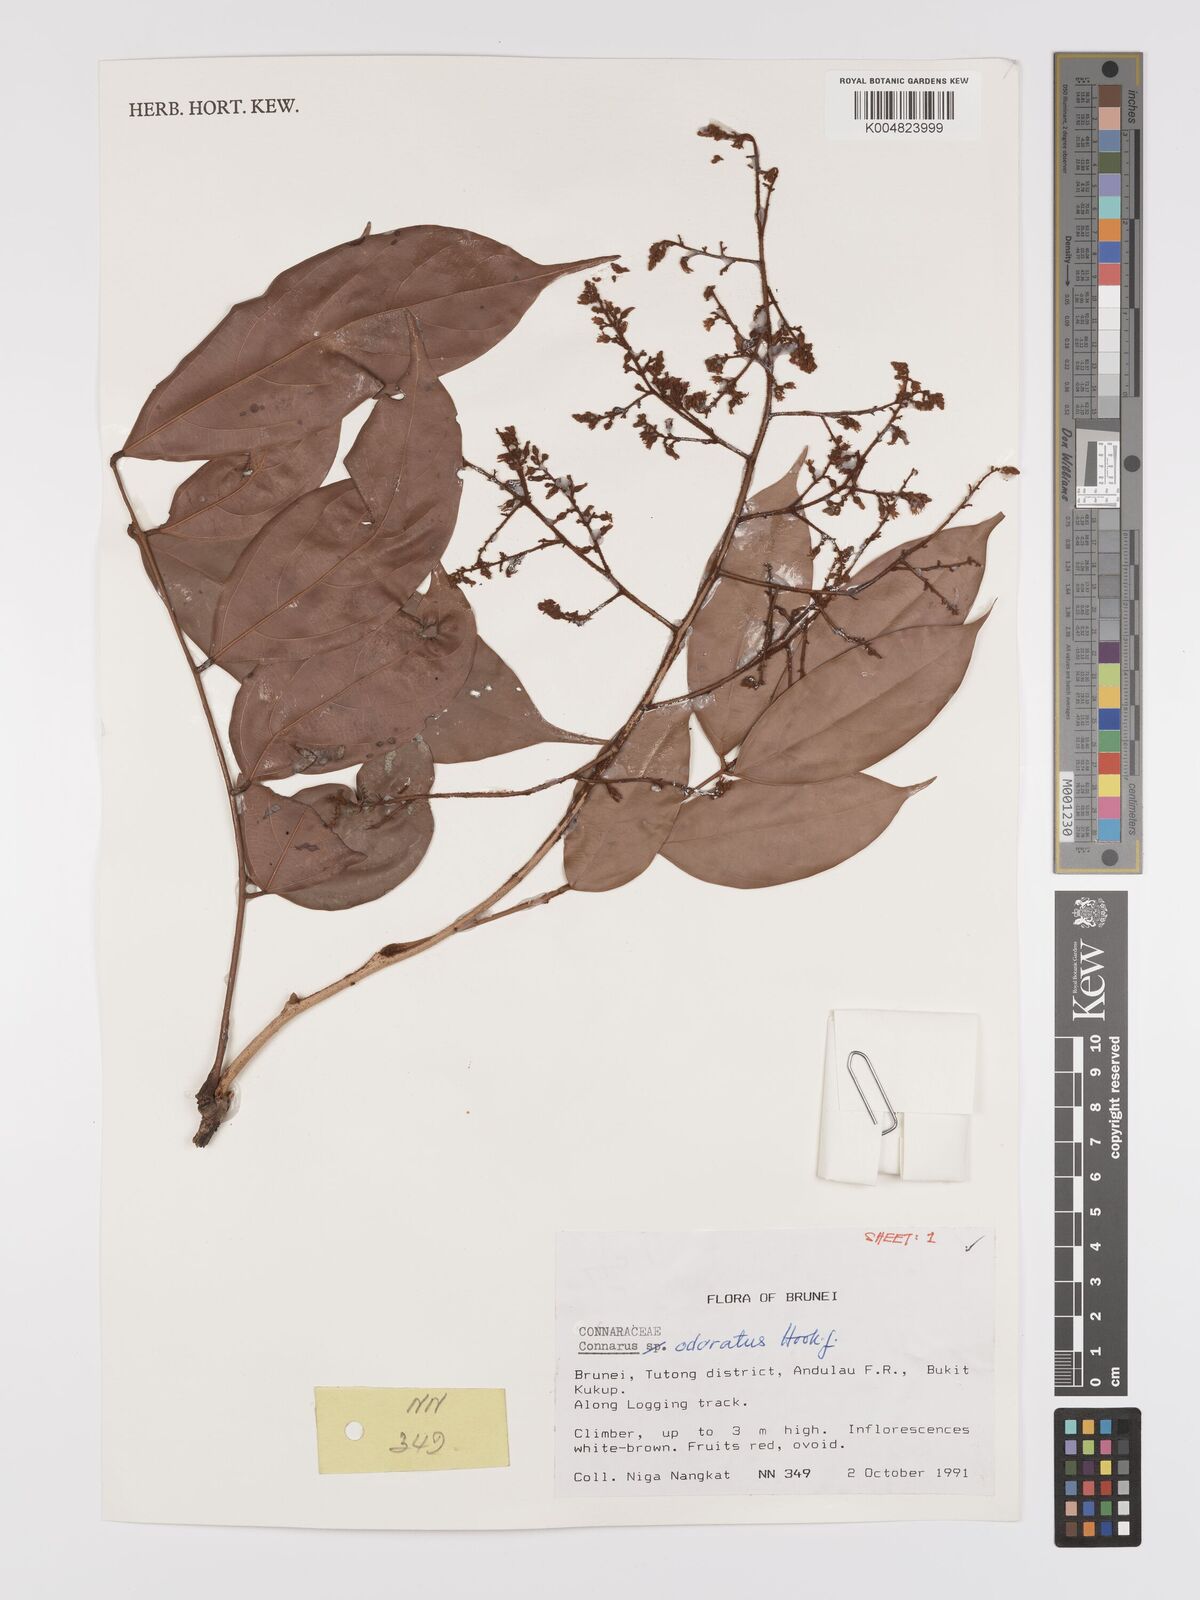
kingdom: Plantae
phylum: Tracheophyta
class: Magnoliopsida
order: Oxalidales
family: Connaraceae
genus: Connarus
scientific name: Connarus odoratus
